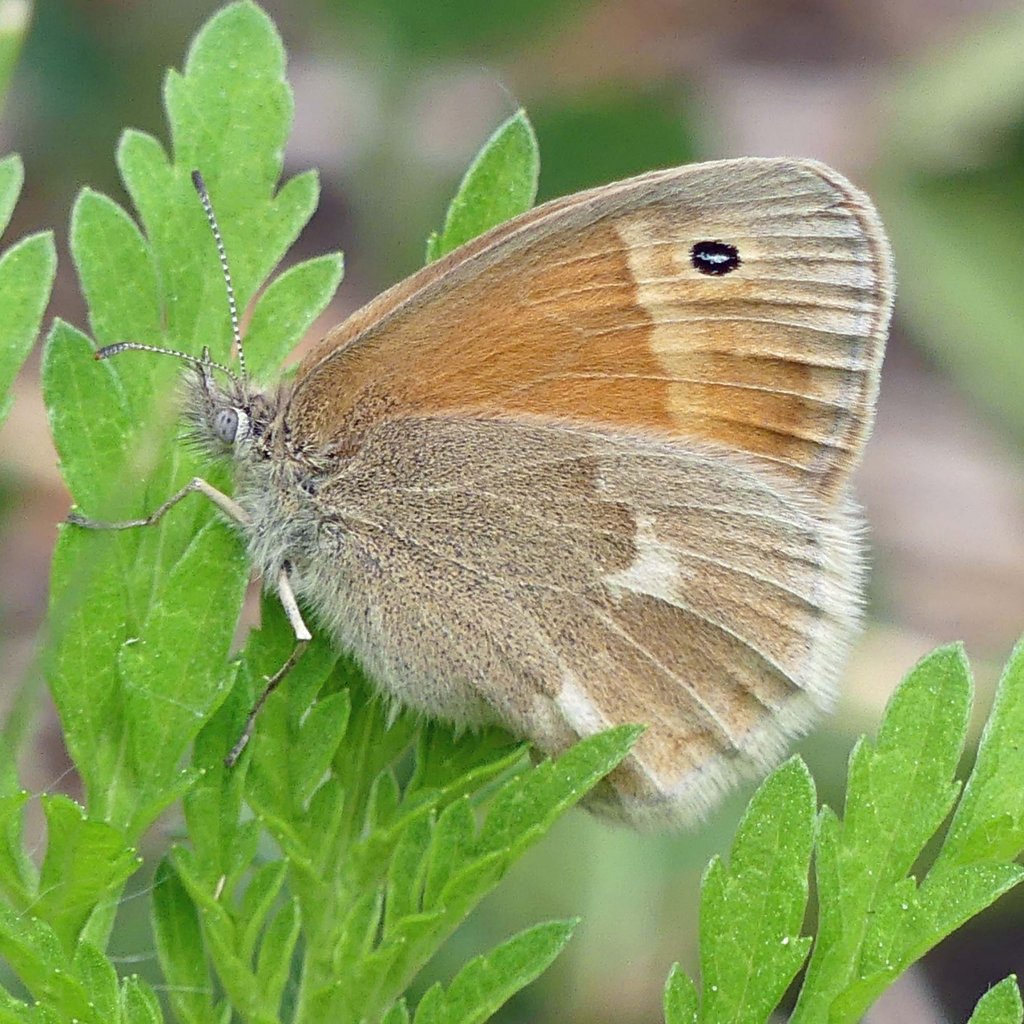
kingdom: Animalia
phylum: Arthropoda
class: Insecta
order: Lepidoptera
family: Nymphalidae
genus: Coenonympha
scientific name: Coenonympha tullia
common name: Large Heath
